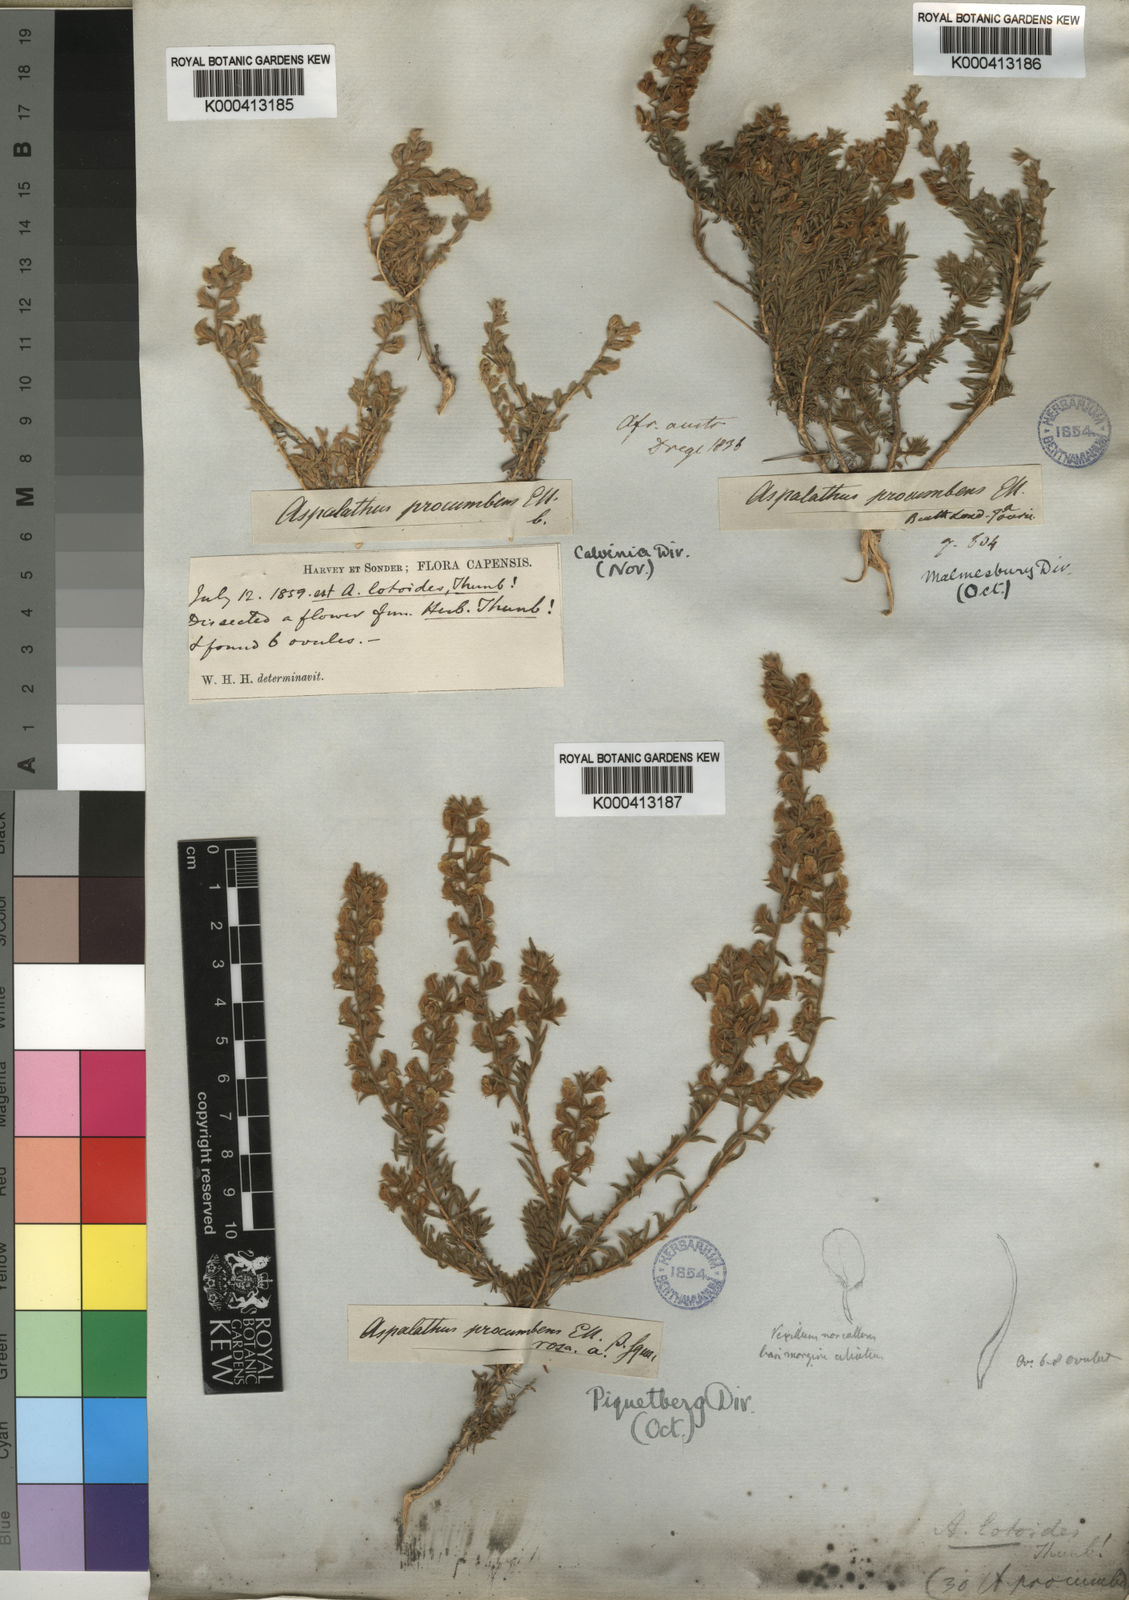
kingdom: Plantae
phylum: Tracheophyta
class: Magnoliopsida
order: Fabales
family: Fabaceae
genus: Aspalathus
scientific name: Aspalathus heterophylla
